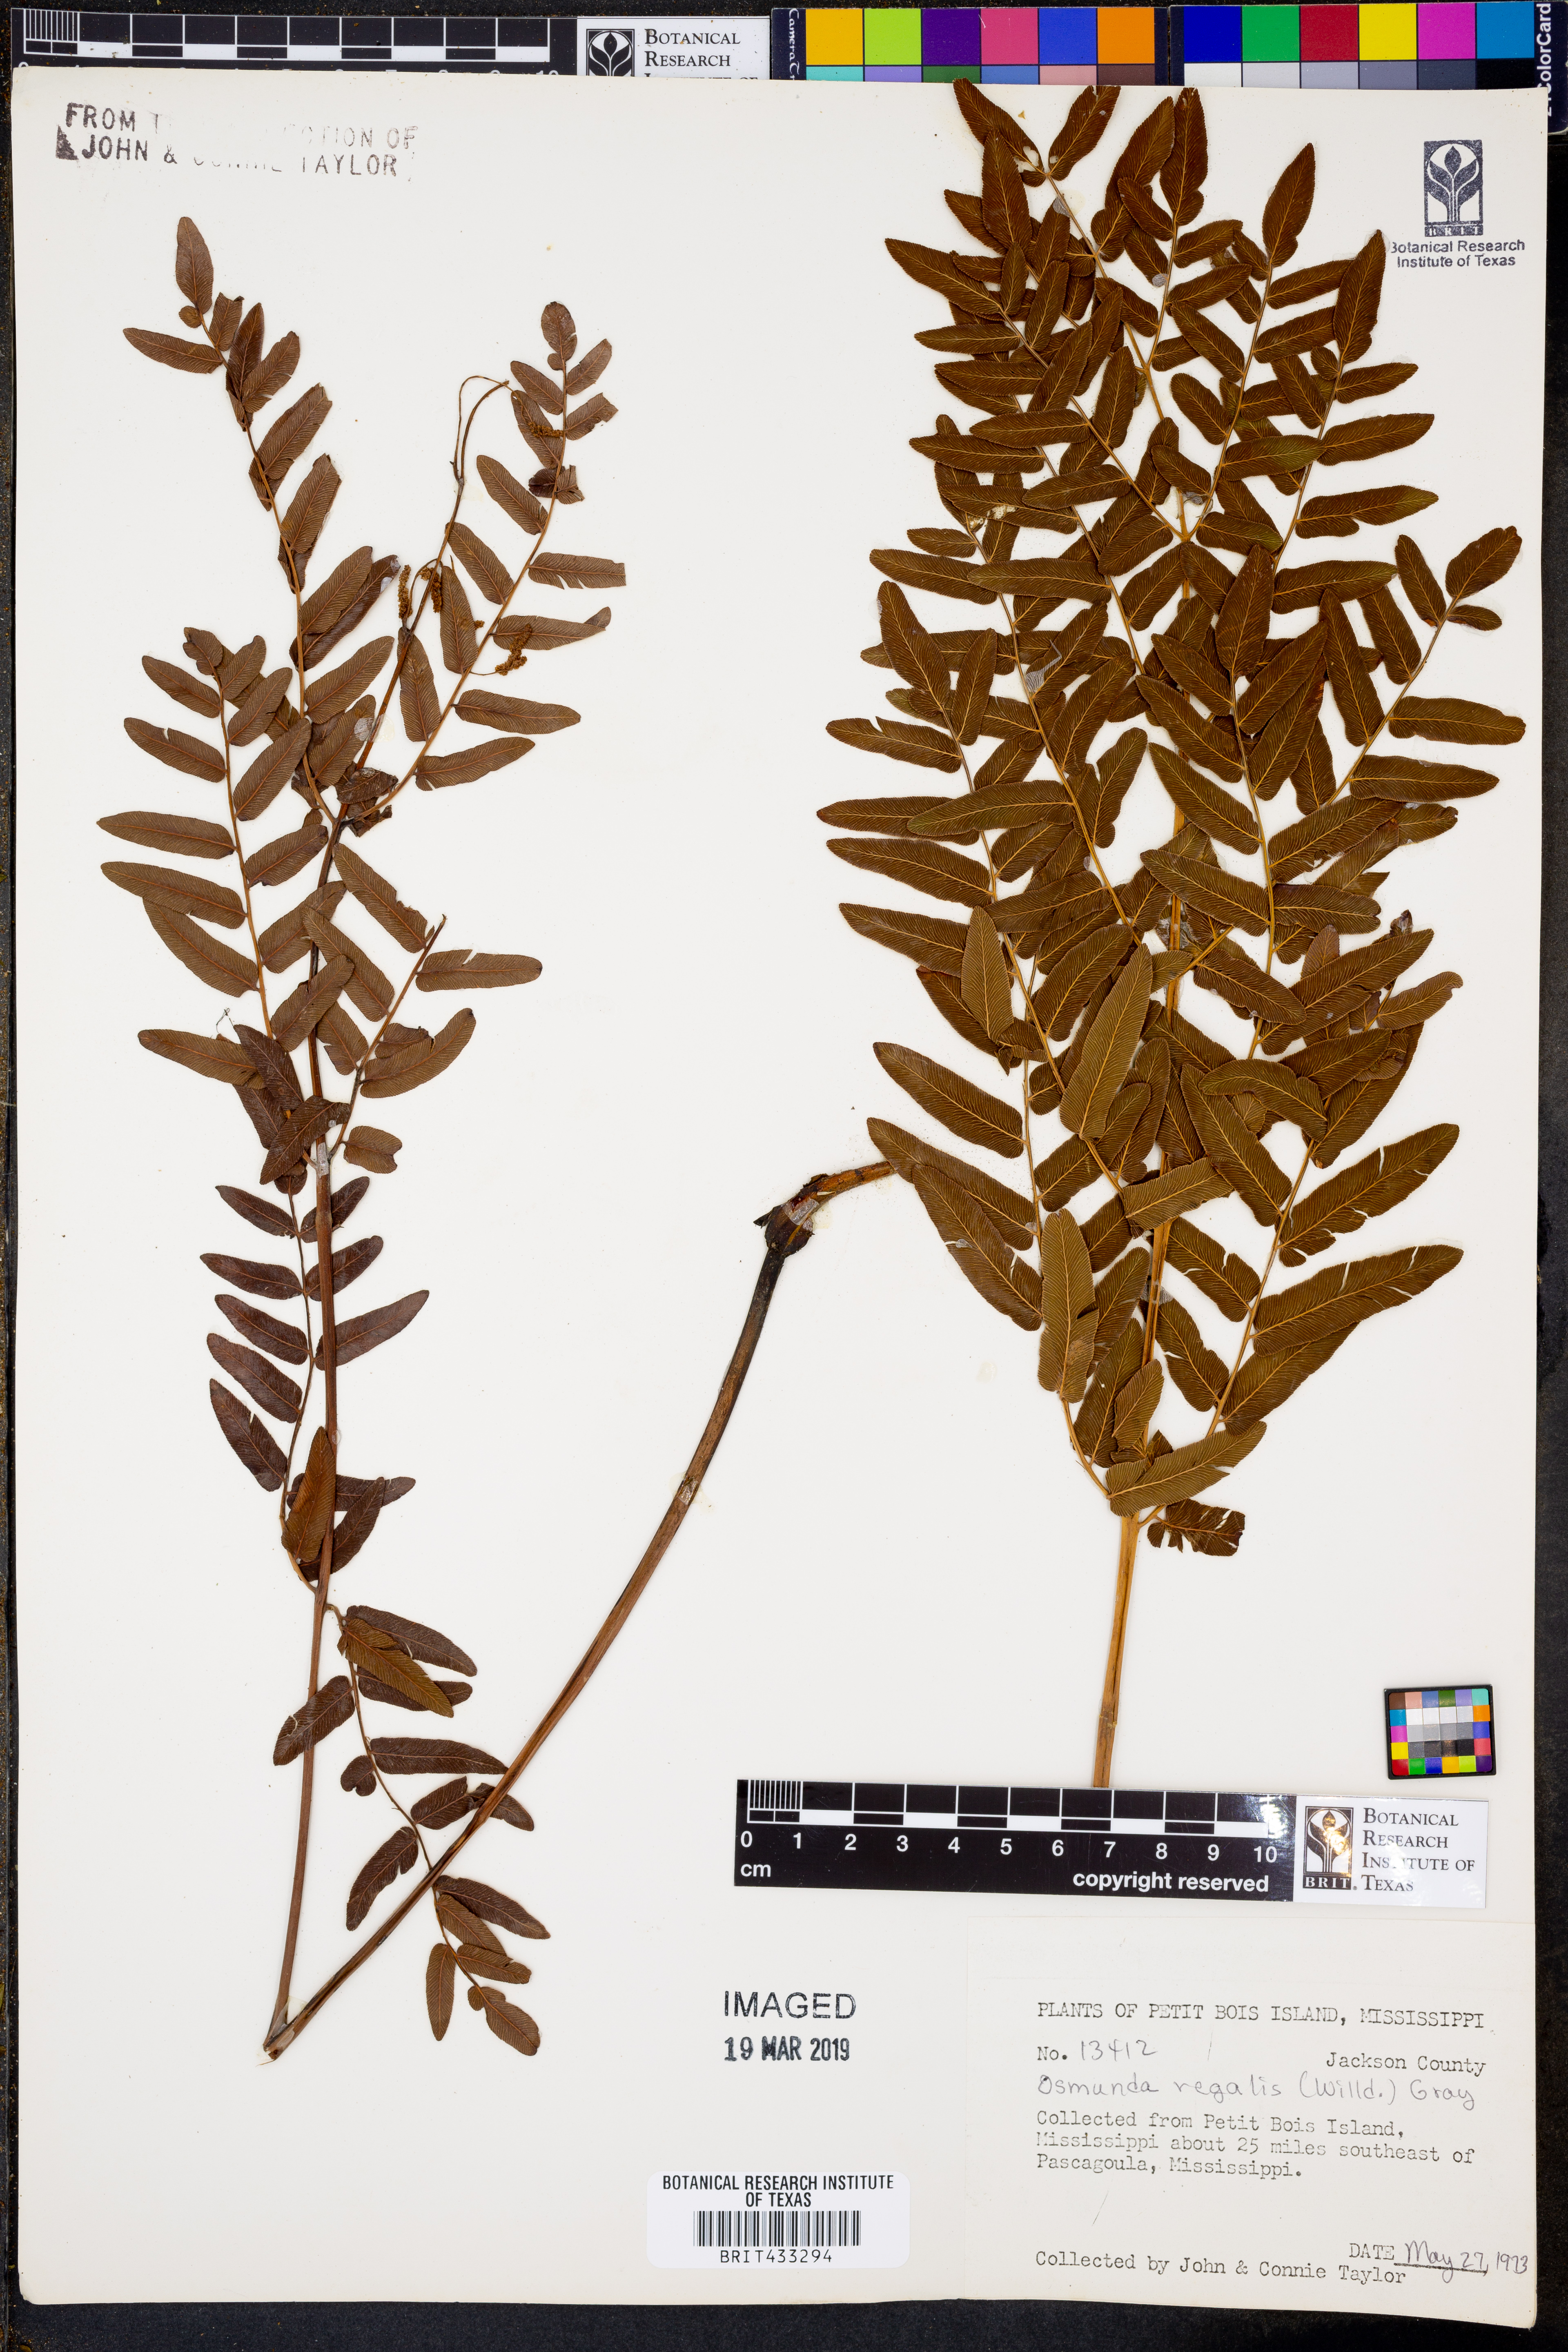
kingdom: Plantae
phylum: Tracheophyta
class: Polypodiopsida
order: Osmundales
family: Osmundaceae
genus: Osmunda
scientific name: Osmunda regalis
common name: Royal fern
